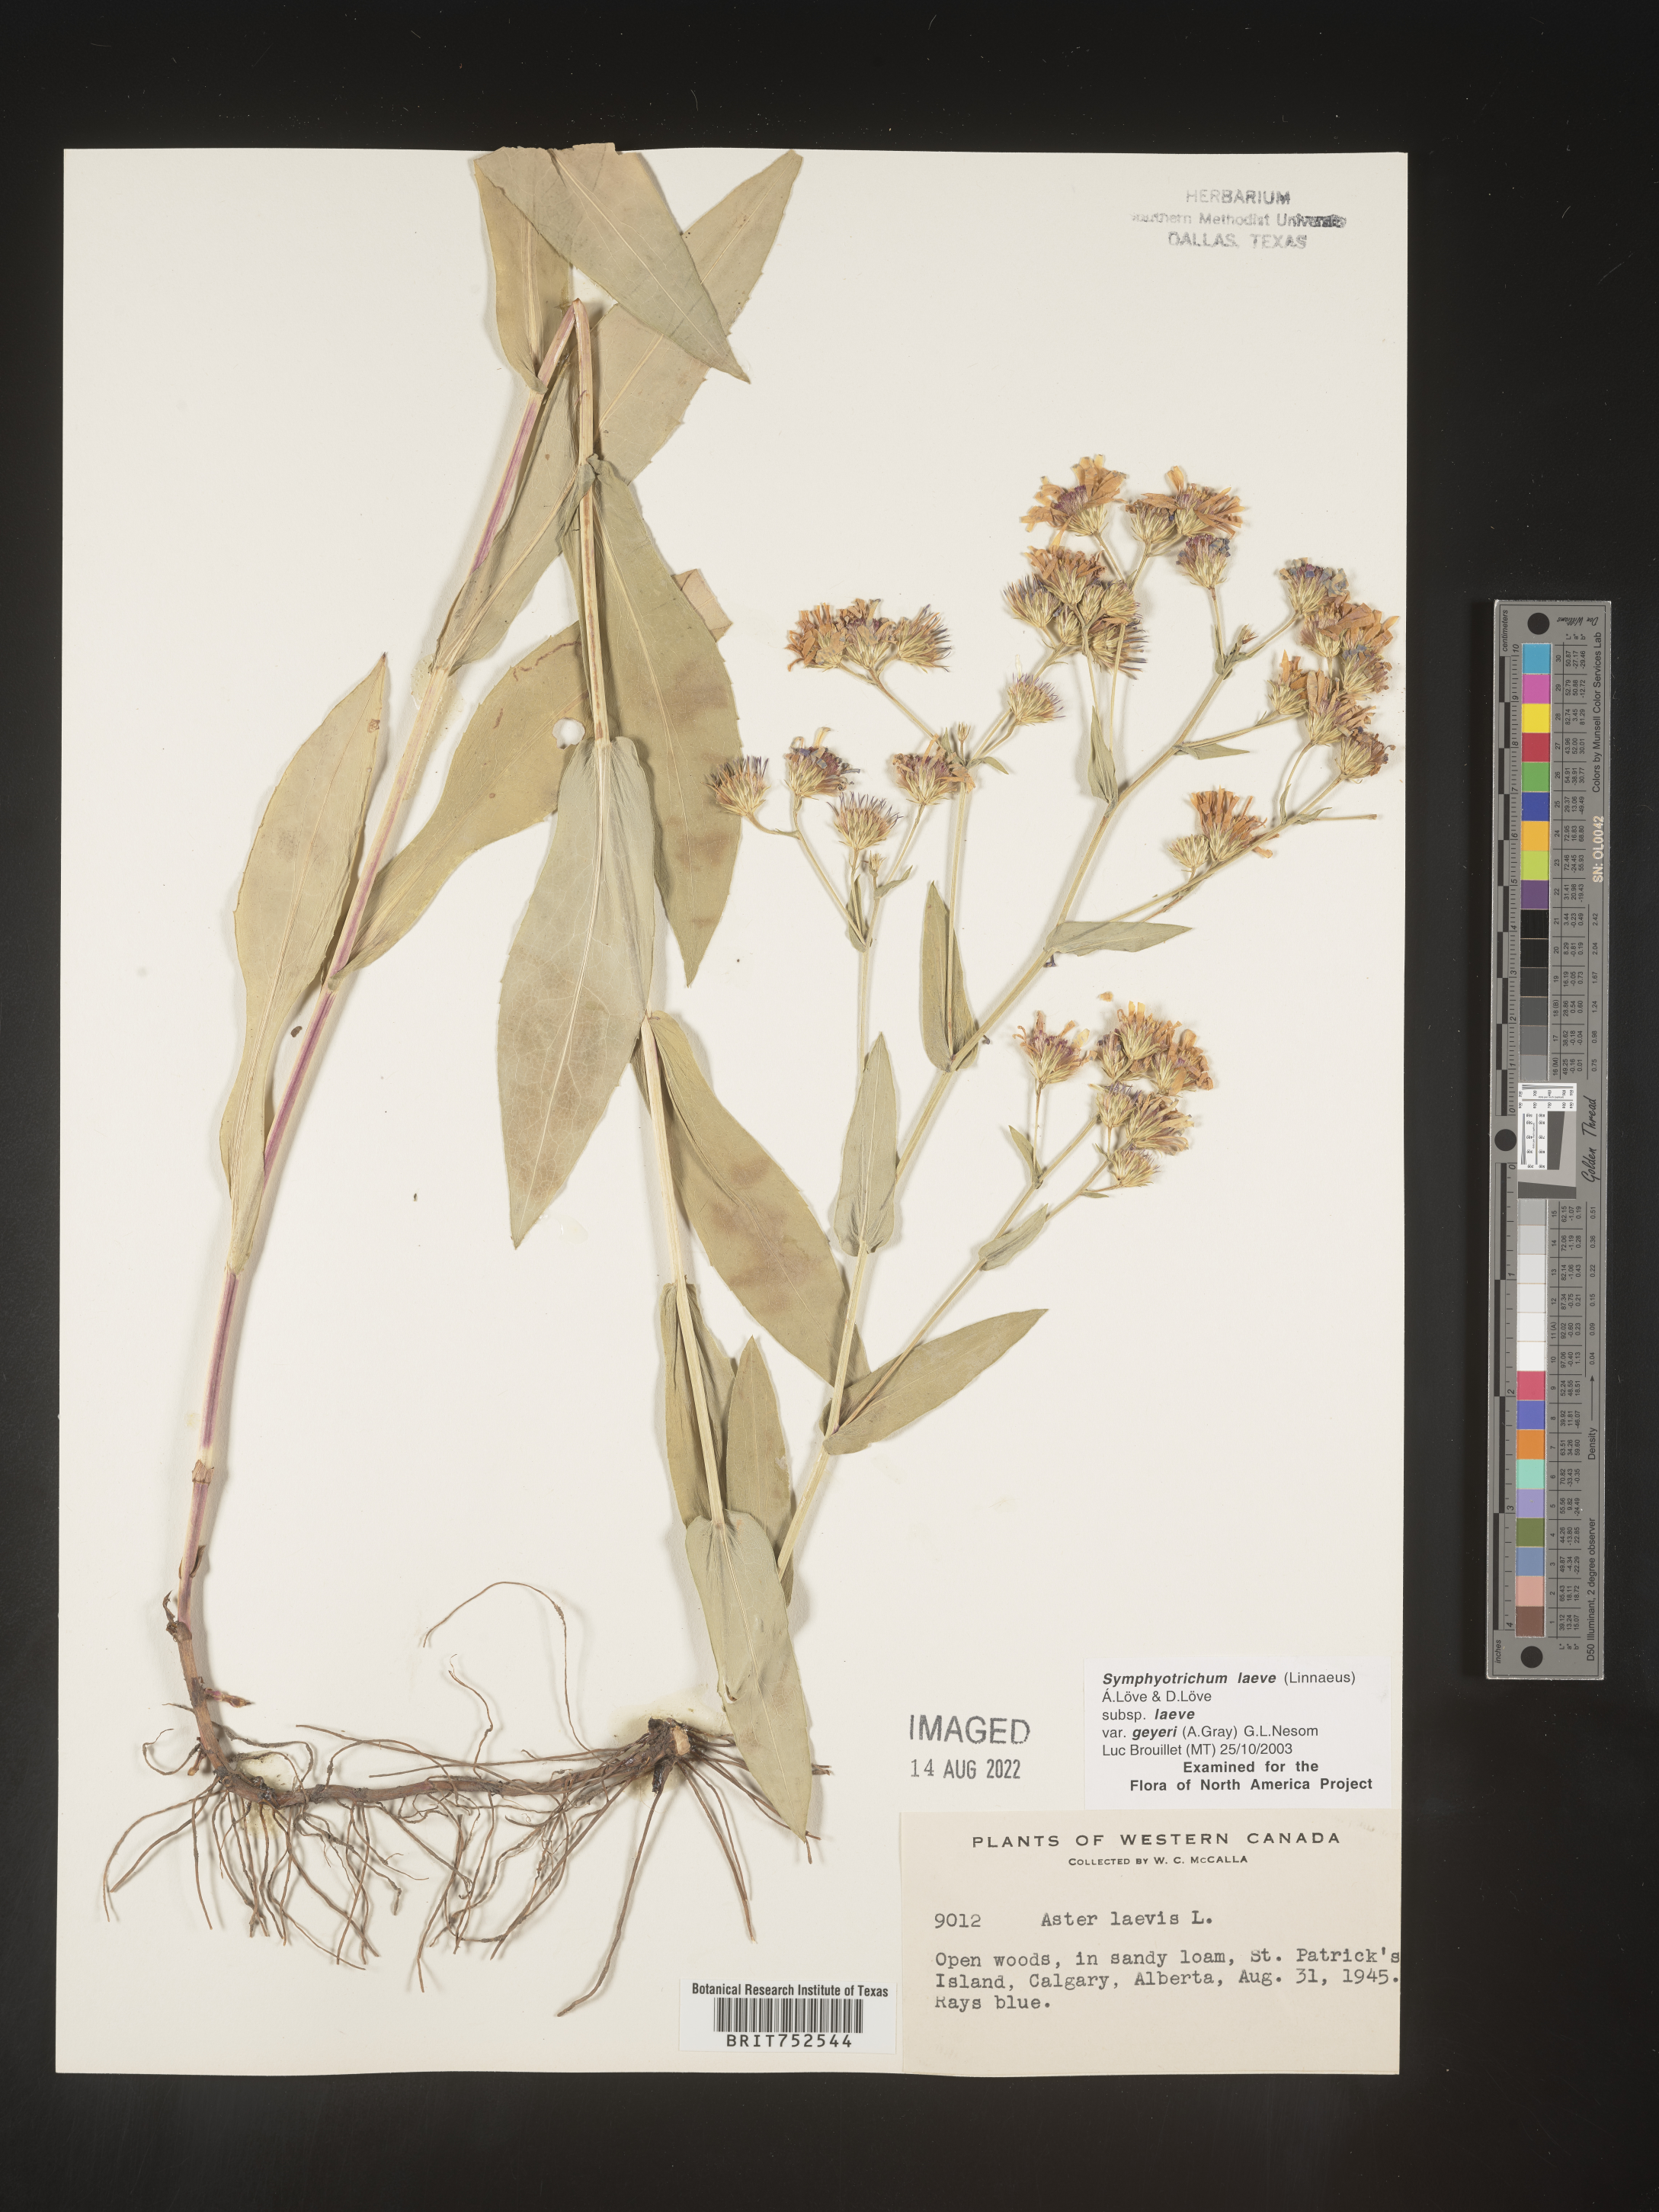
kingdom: Plantae
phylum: Tracheophyta
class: Magnoliopsida
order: Asterales
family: Asteraceae
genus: Symphyotrichum
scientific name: Symphyotrichum laeve
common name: Glaucous aster
